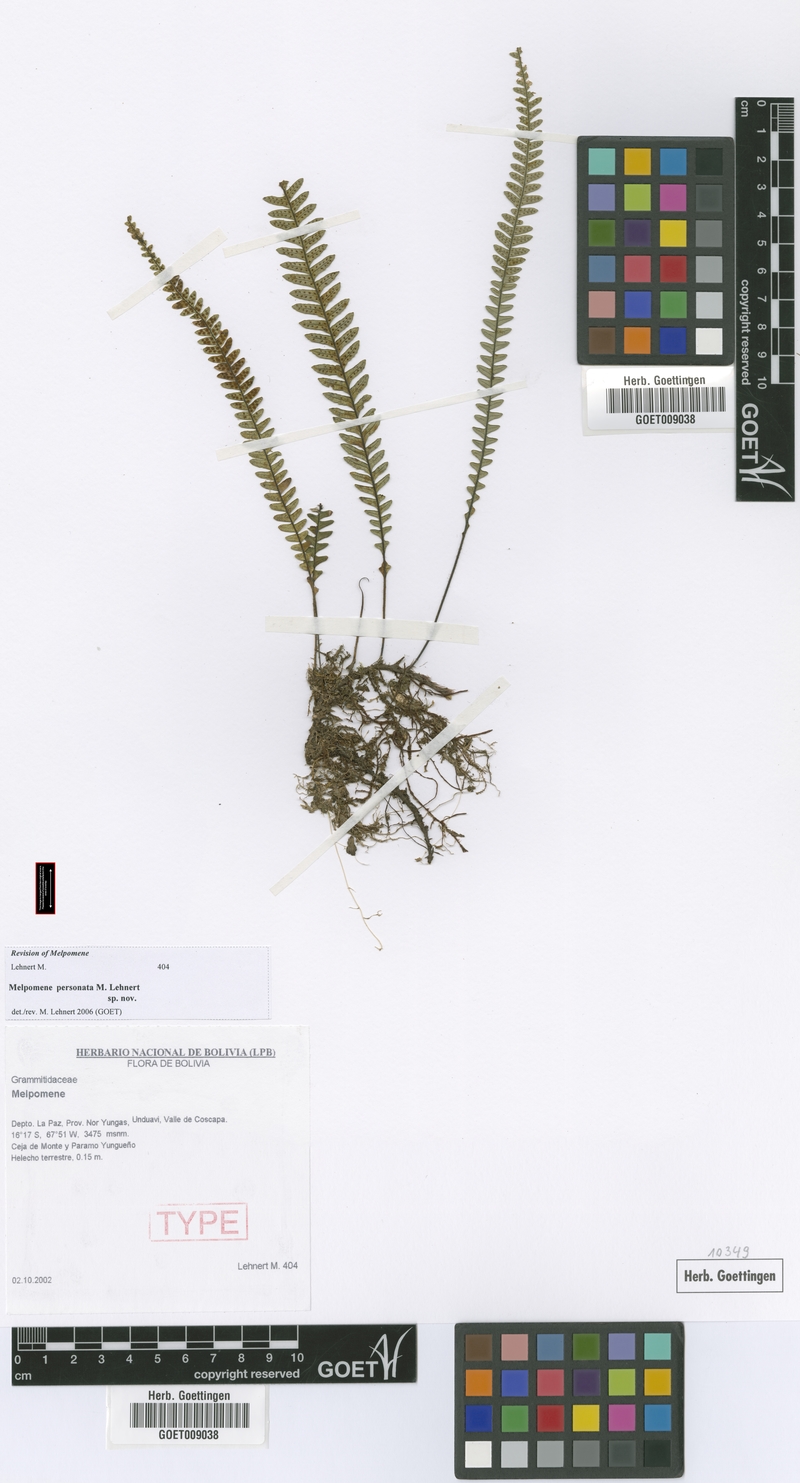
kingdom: Plantae
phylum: Tracheophyta
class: Polypodiopsida
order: Polypodiales
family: Polypodiaceae
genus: Melpomene
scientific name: Melpomene personata
